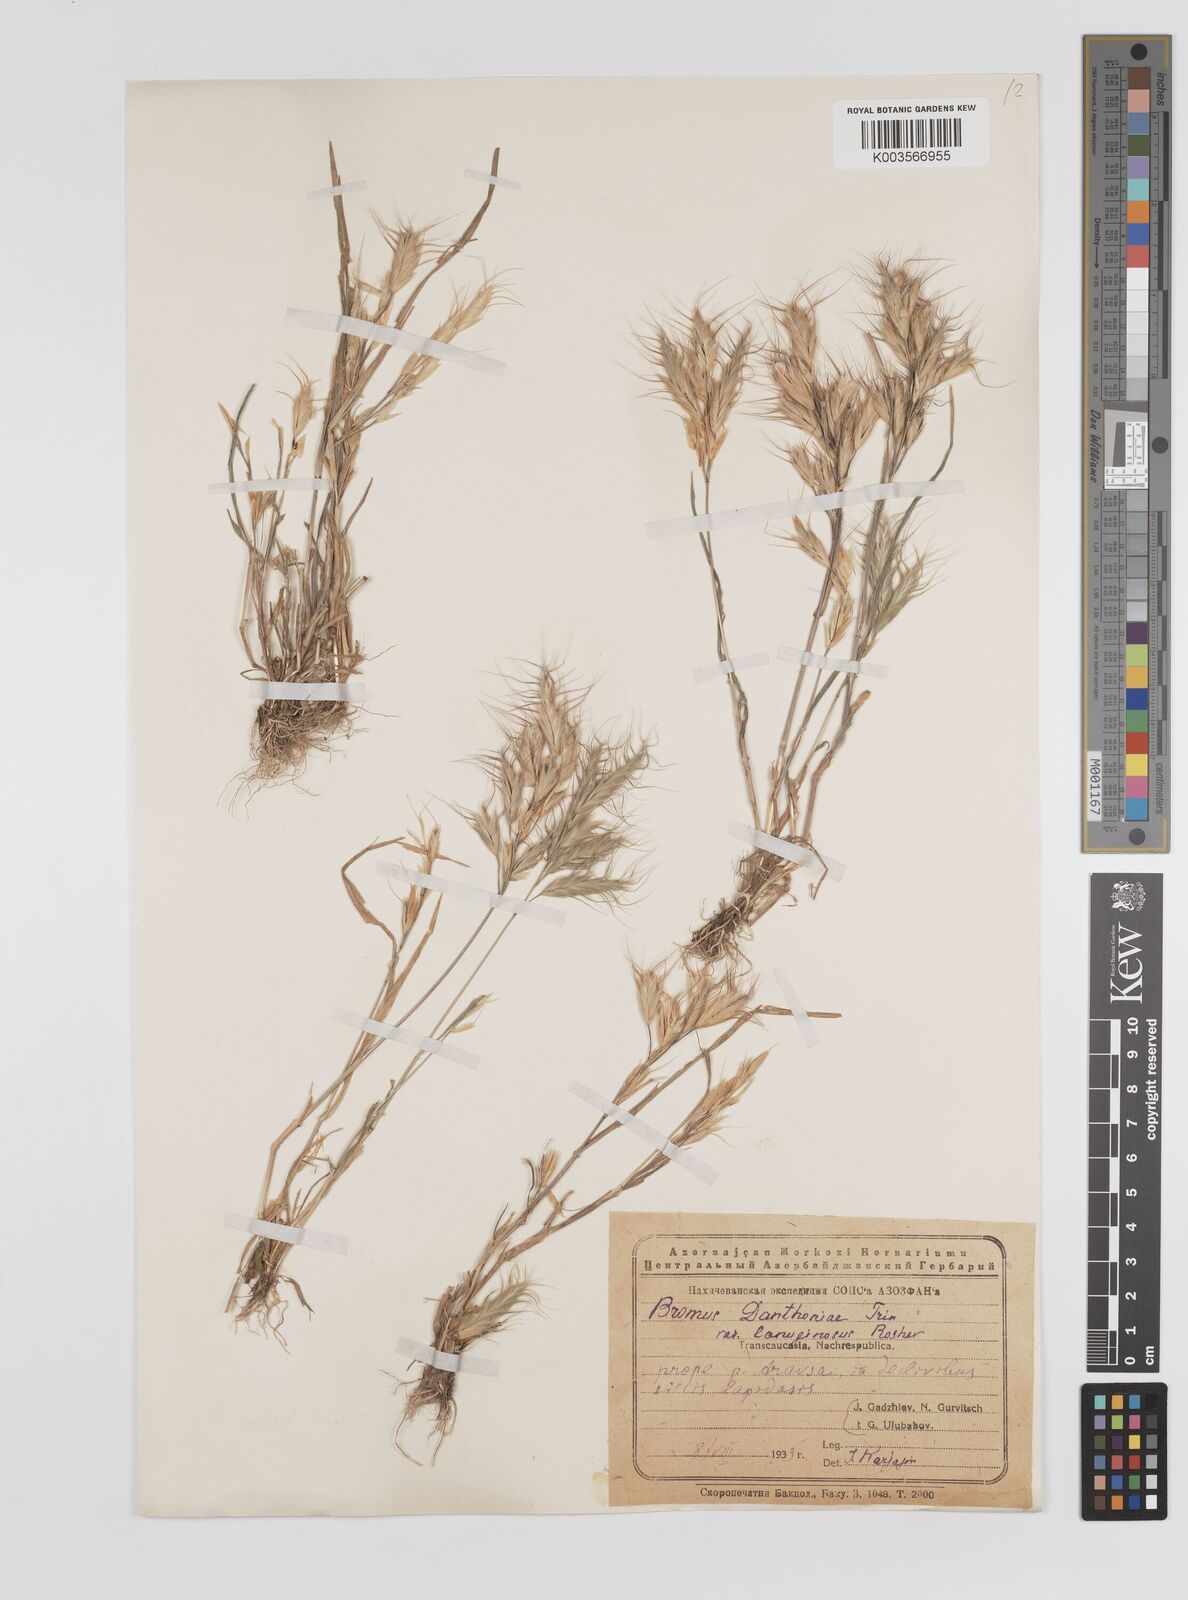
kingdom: Plantae
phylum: Tracheophyta
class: Liliopsida
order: Poales
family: Poaceae
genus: Bromus
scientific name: Bromus danthoniae
